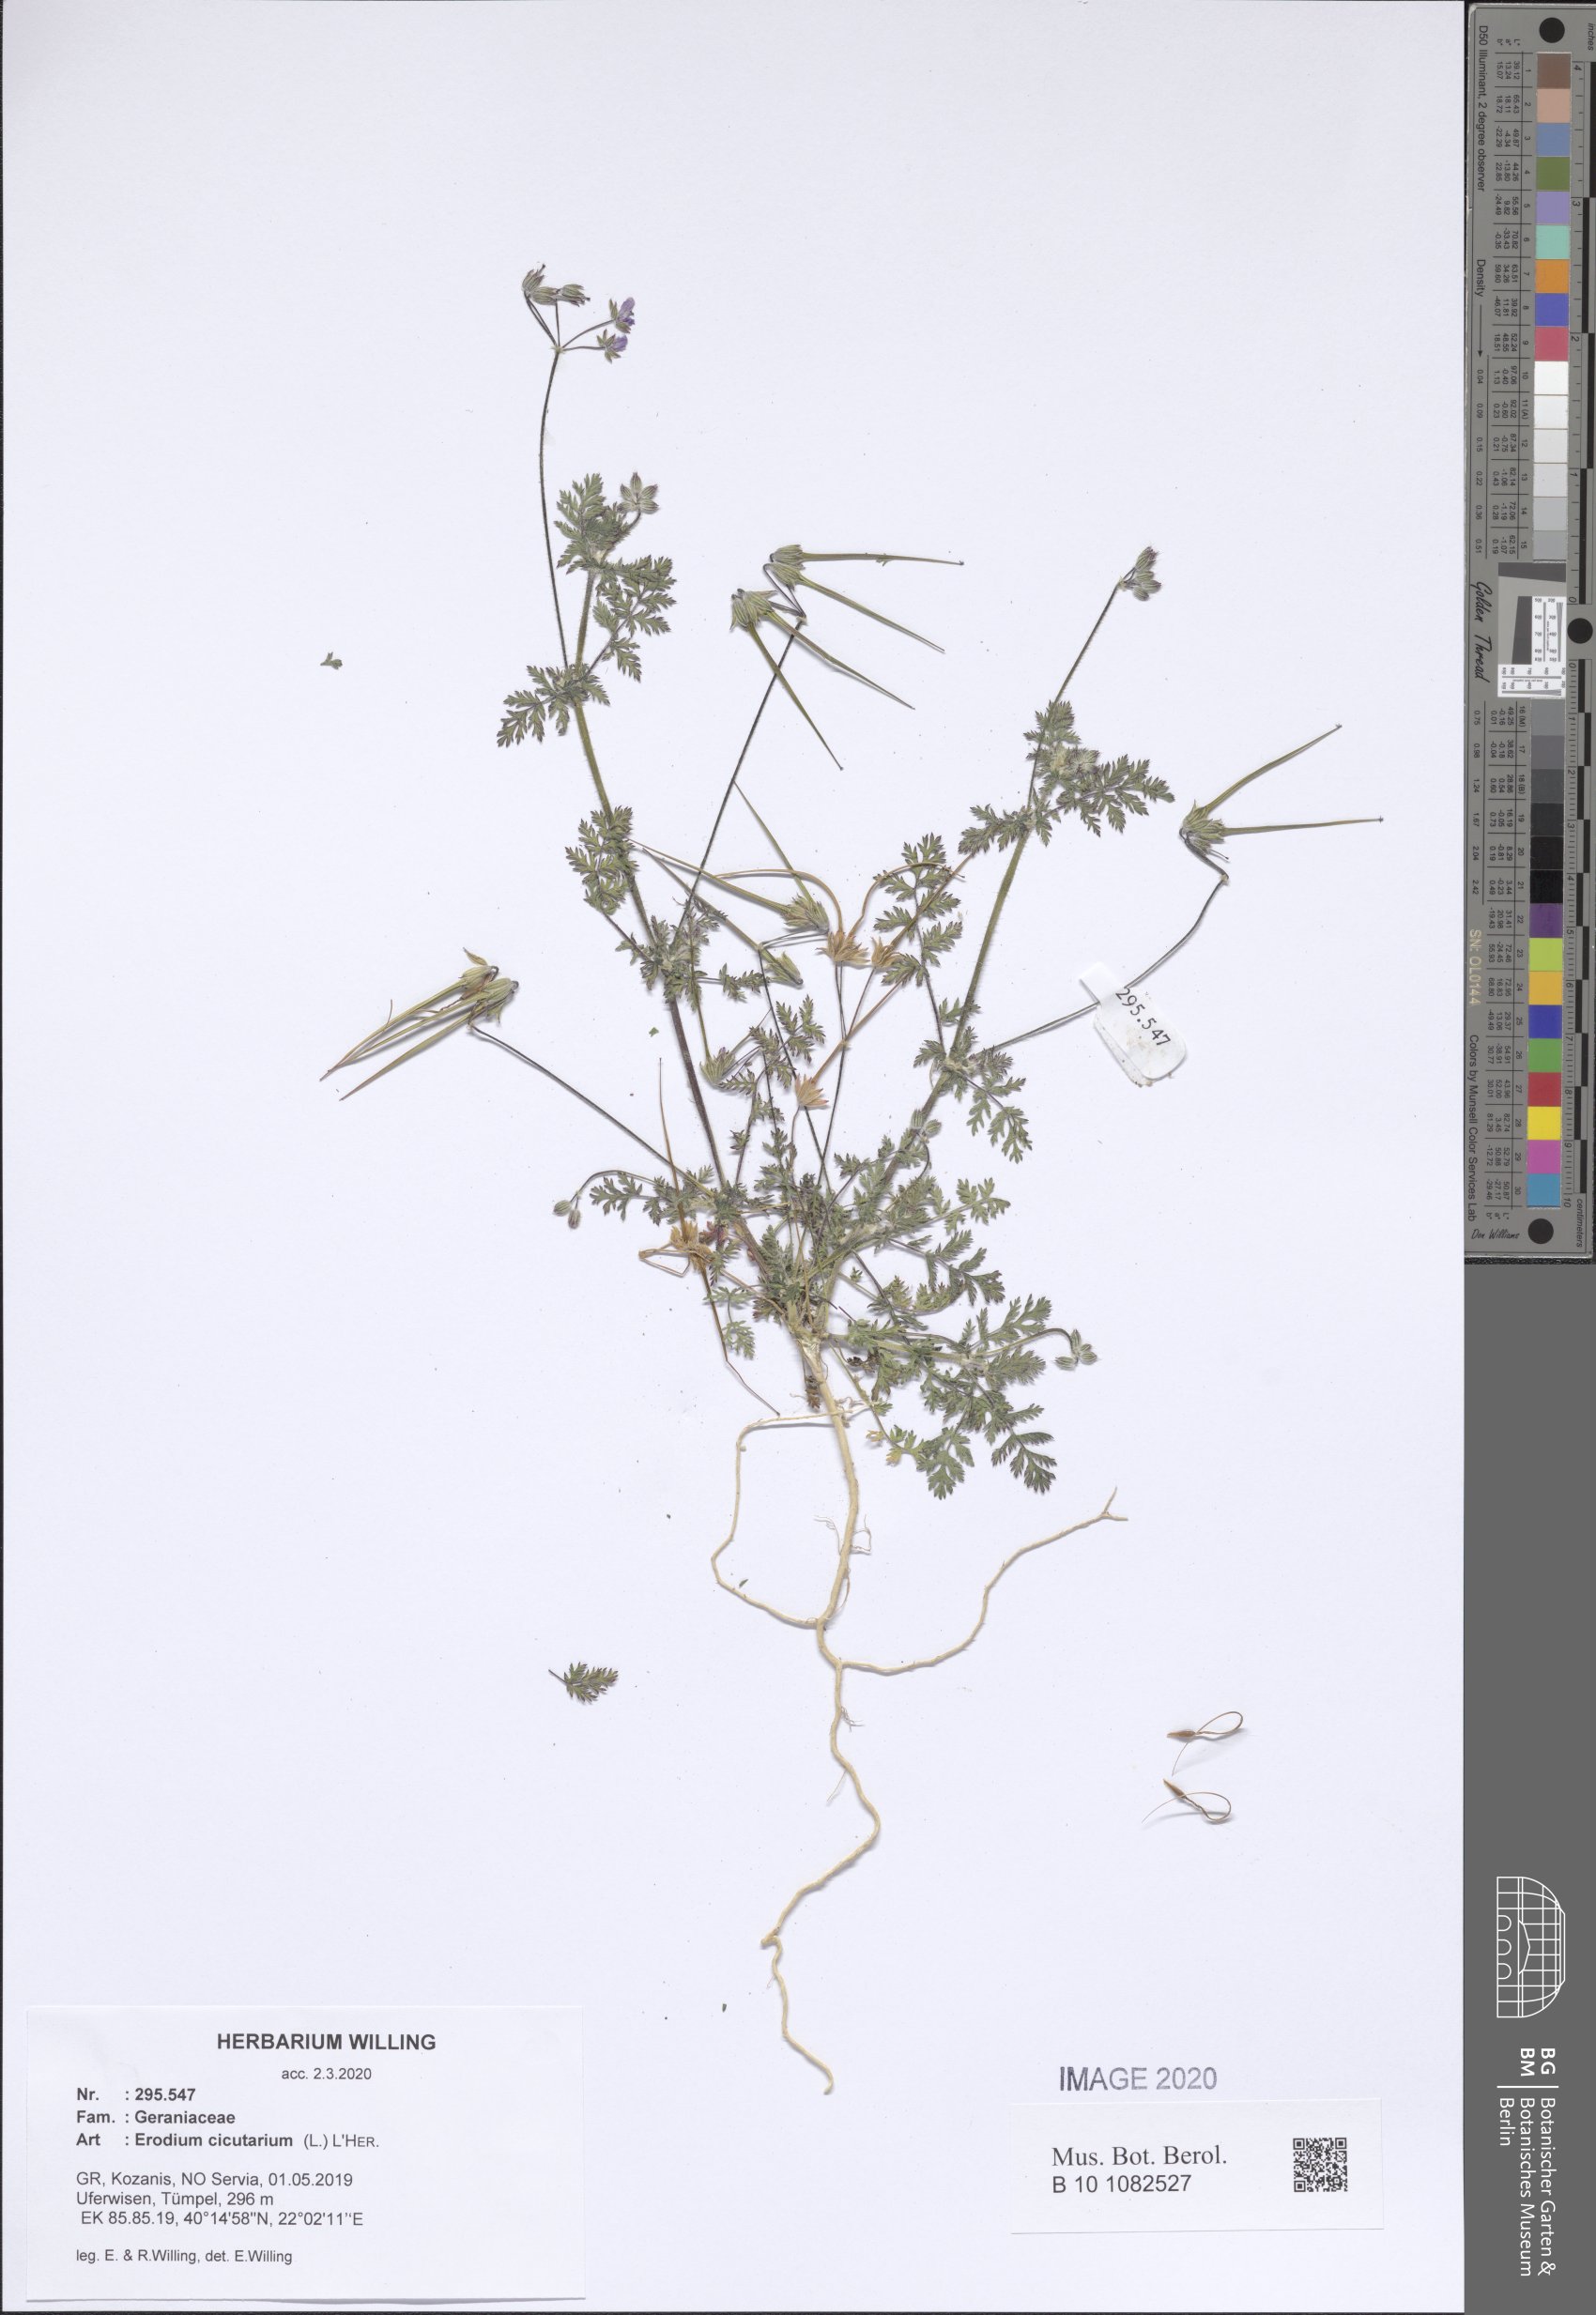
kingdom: Plantae
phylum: Tracheophyta
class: Magnoliopsida
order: Geraniales
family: Geraniaceae
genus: Erodium
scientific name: Erodium cicutarium
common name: Common stork's-bill
